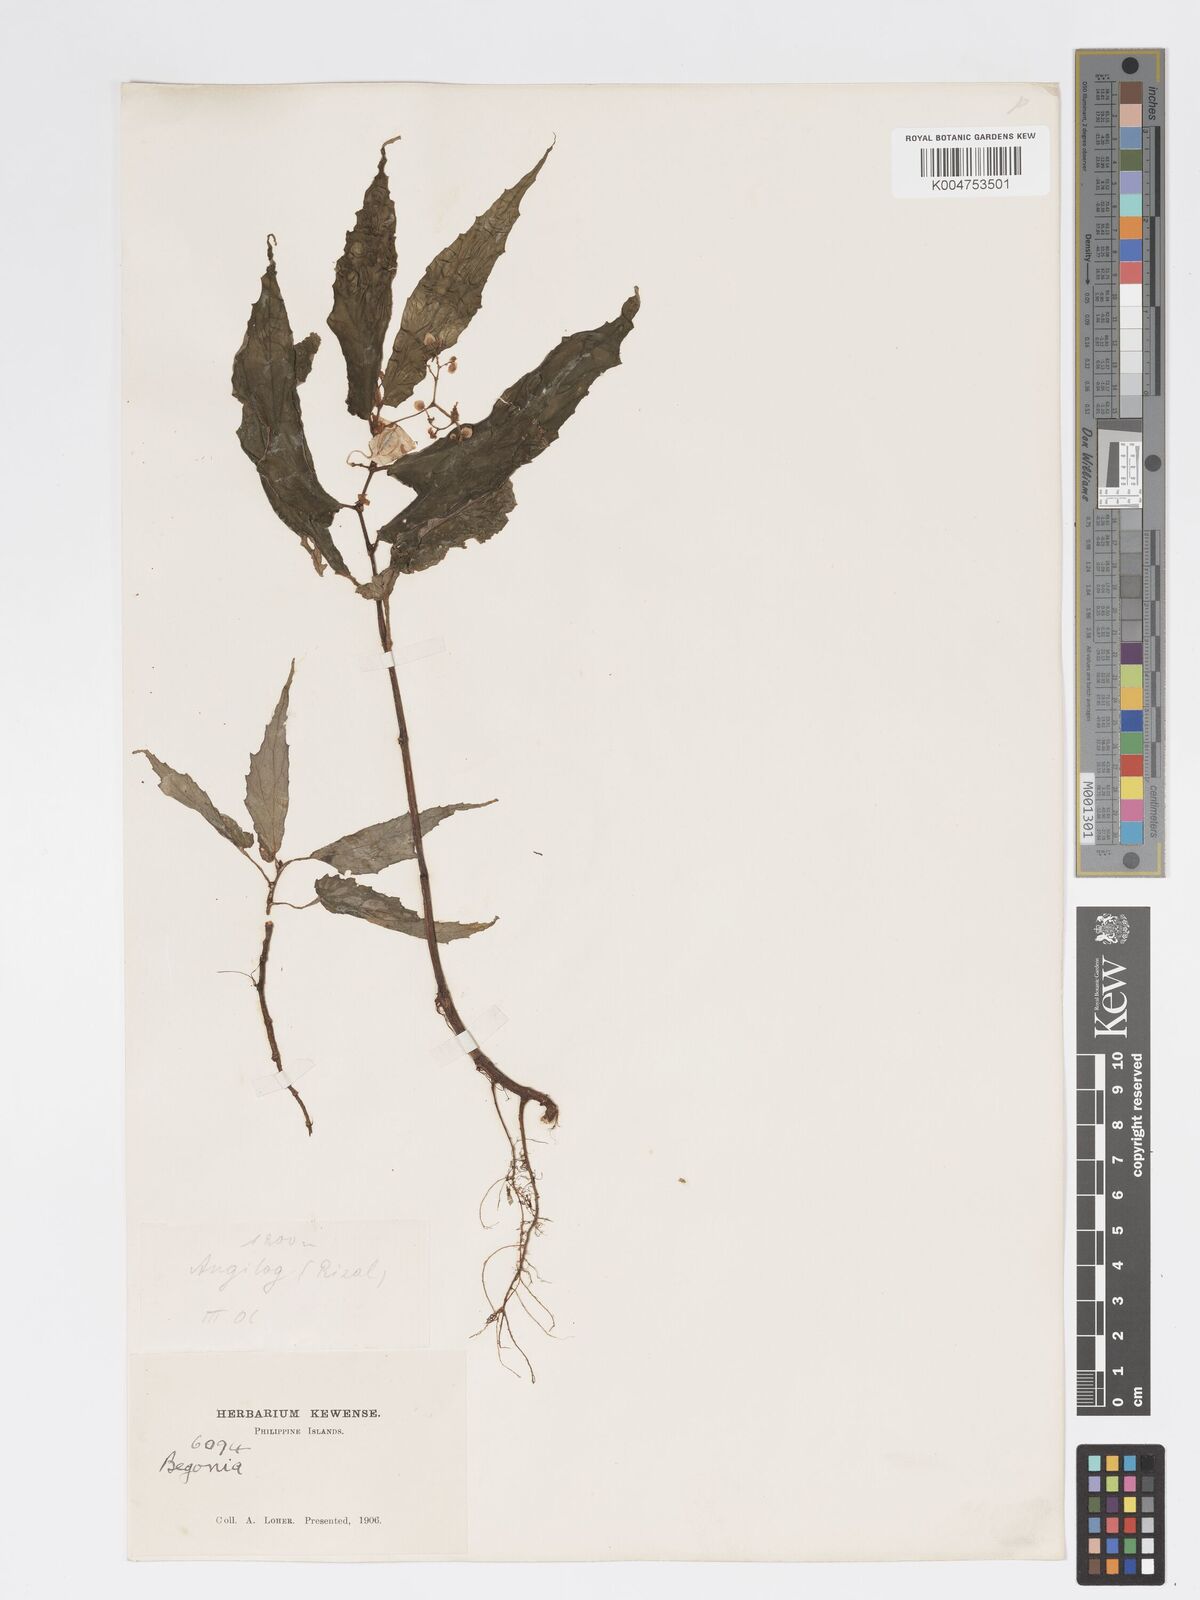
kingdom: Plantae
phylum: Tracheophyta
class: Magnoliopsida
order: Cucurbitales
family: Begoniaceae
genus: Begonia
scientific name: Begonia
